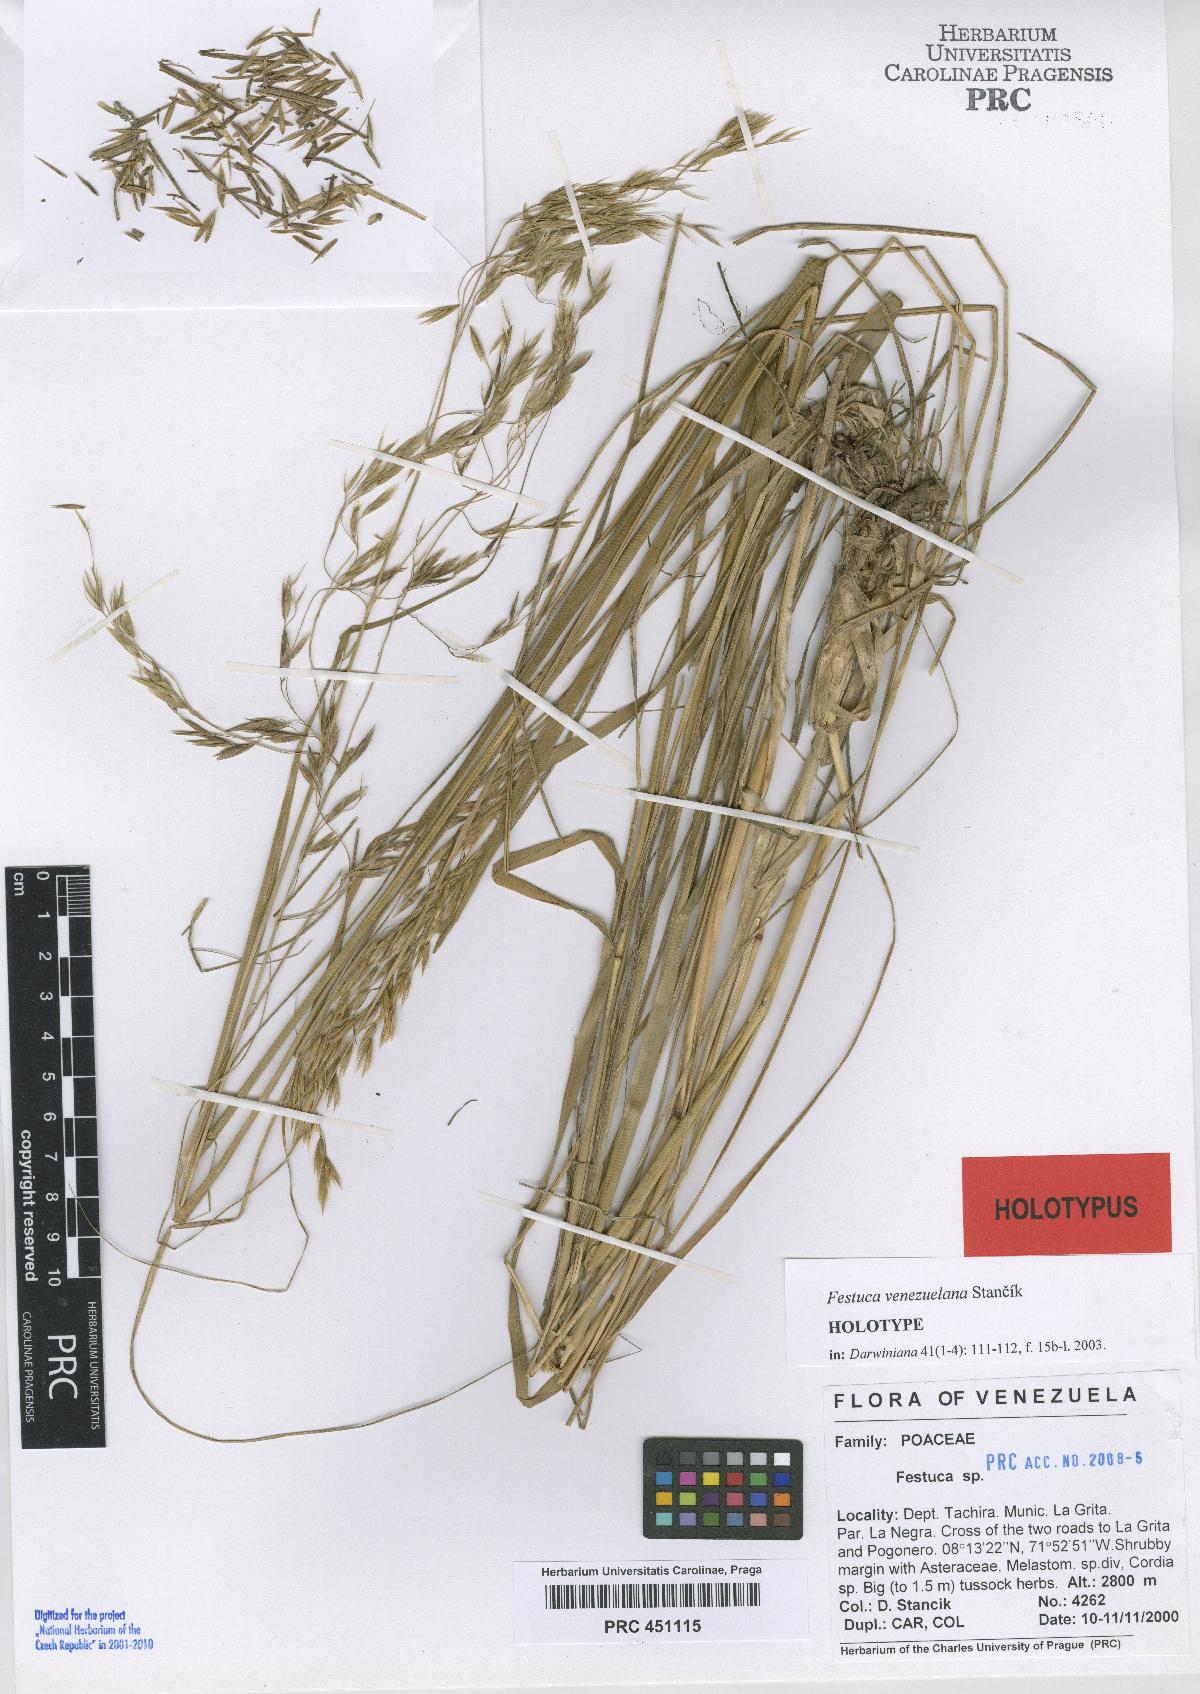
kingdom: Plantae
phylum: Tracheophyta
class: Liliopsida
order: Poales
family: Poaceae
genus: Festuca
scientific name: Festuca venezuelana
